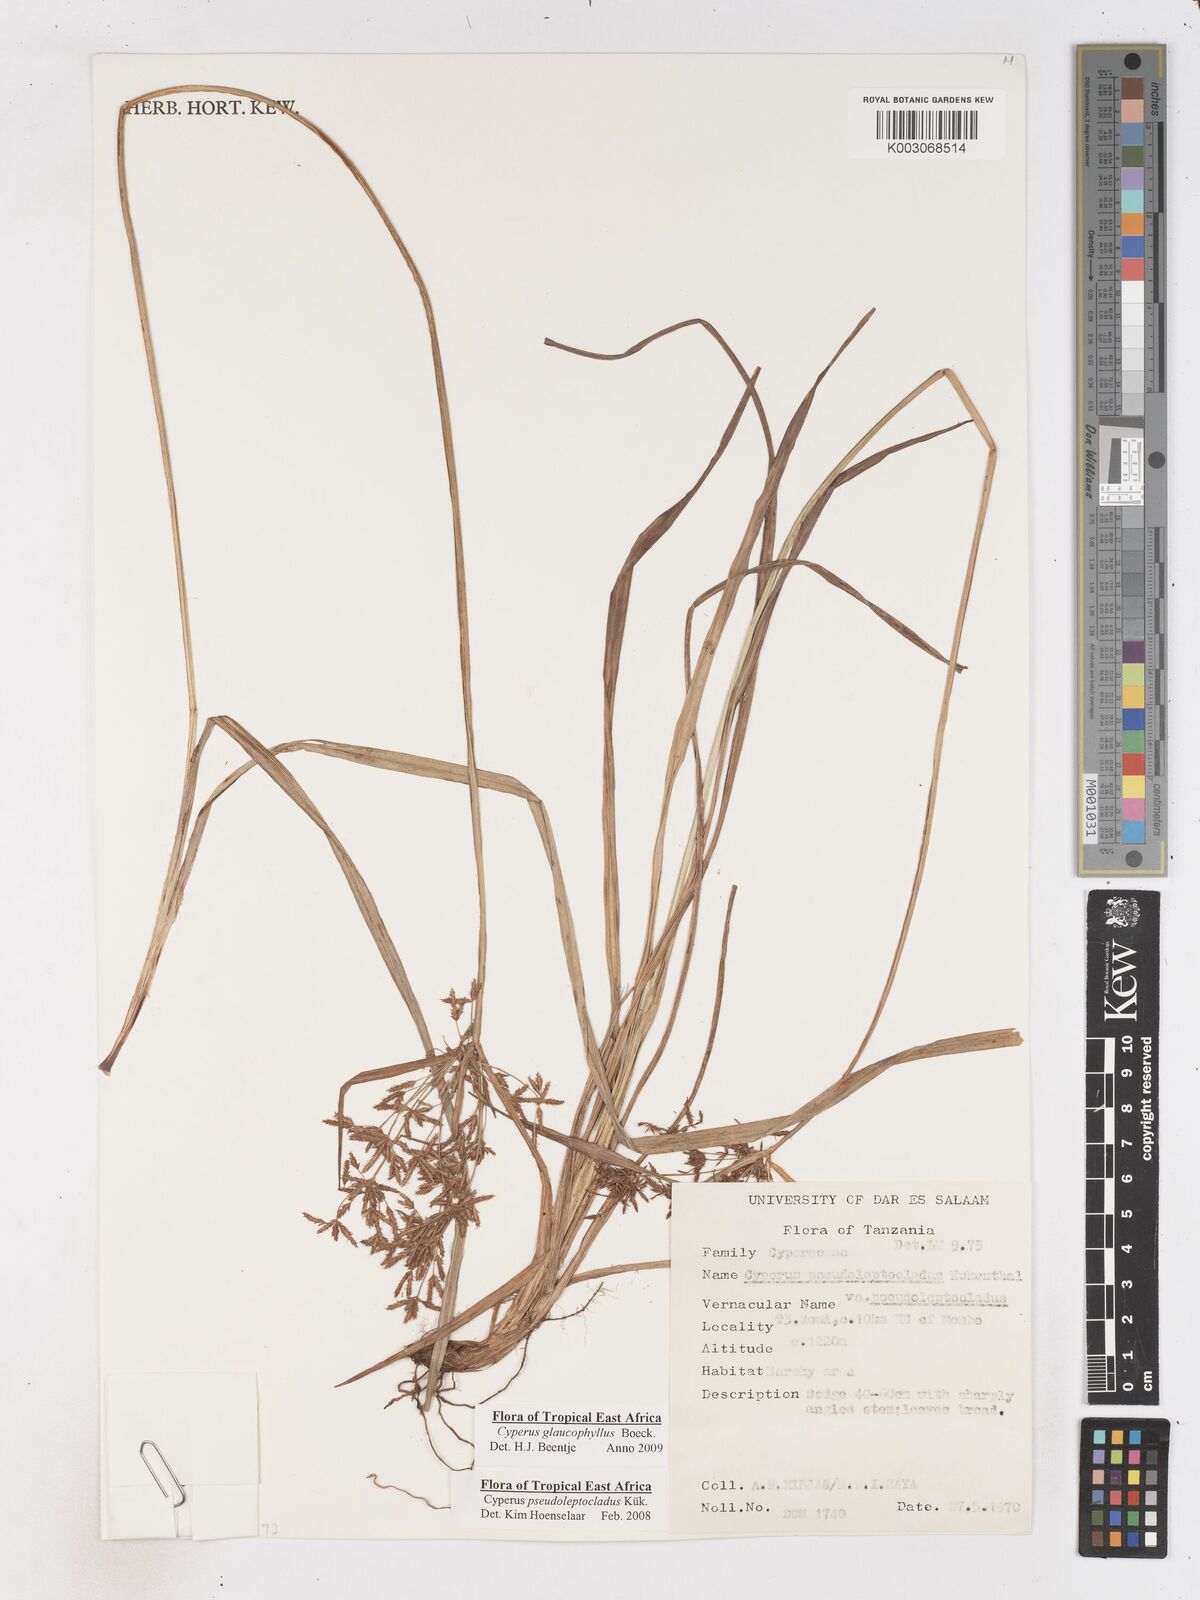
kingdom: Plantae
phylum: Tracheophyta
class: Liliopsida
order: Poales
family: Cyperaceae
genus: Cyperus
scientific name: Cyperus glaucophyllus
